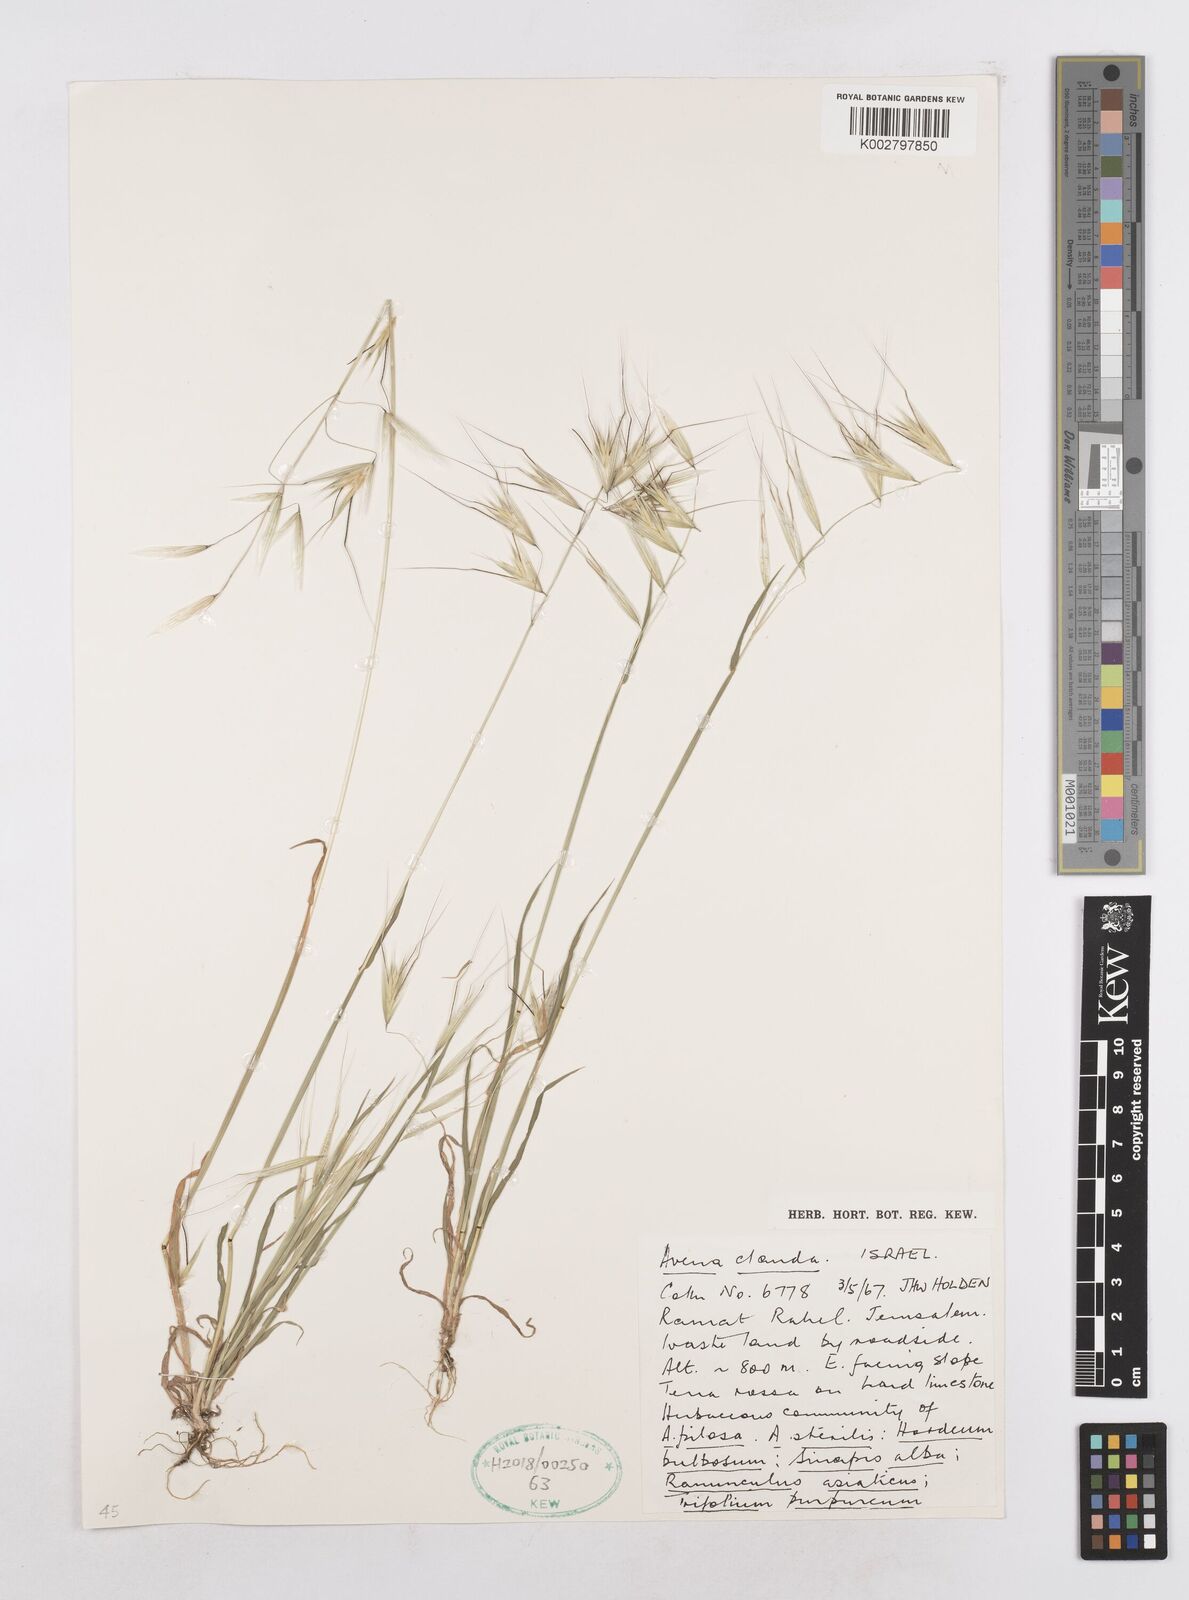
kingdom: Plantae
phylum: Tracheophyta
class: Liliopsida
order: Poales
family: Poaceae
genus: Avena
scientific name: Avena clauda
